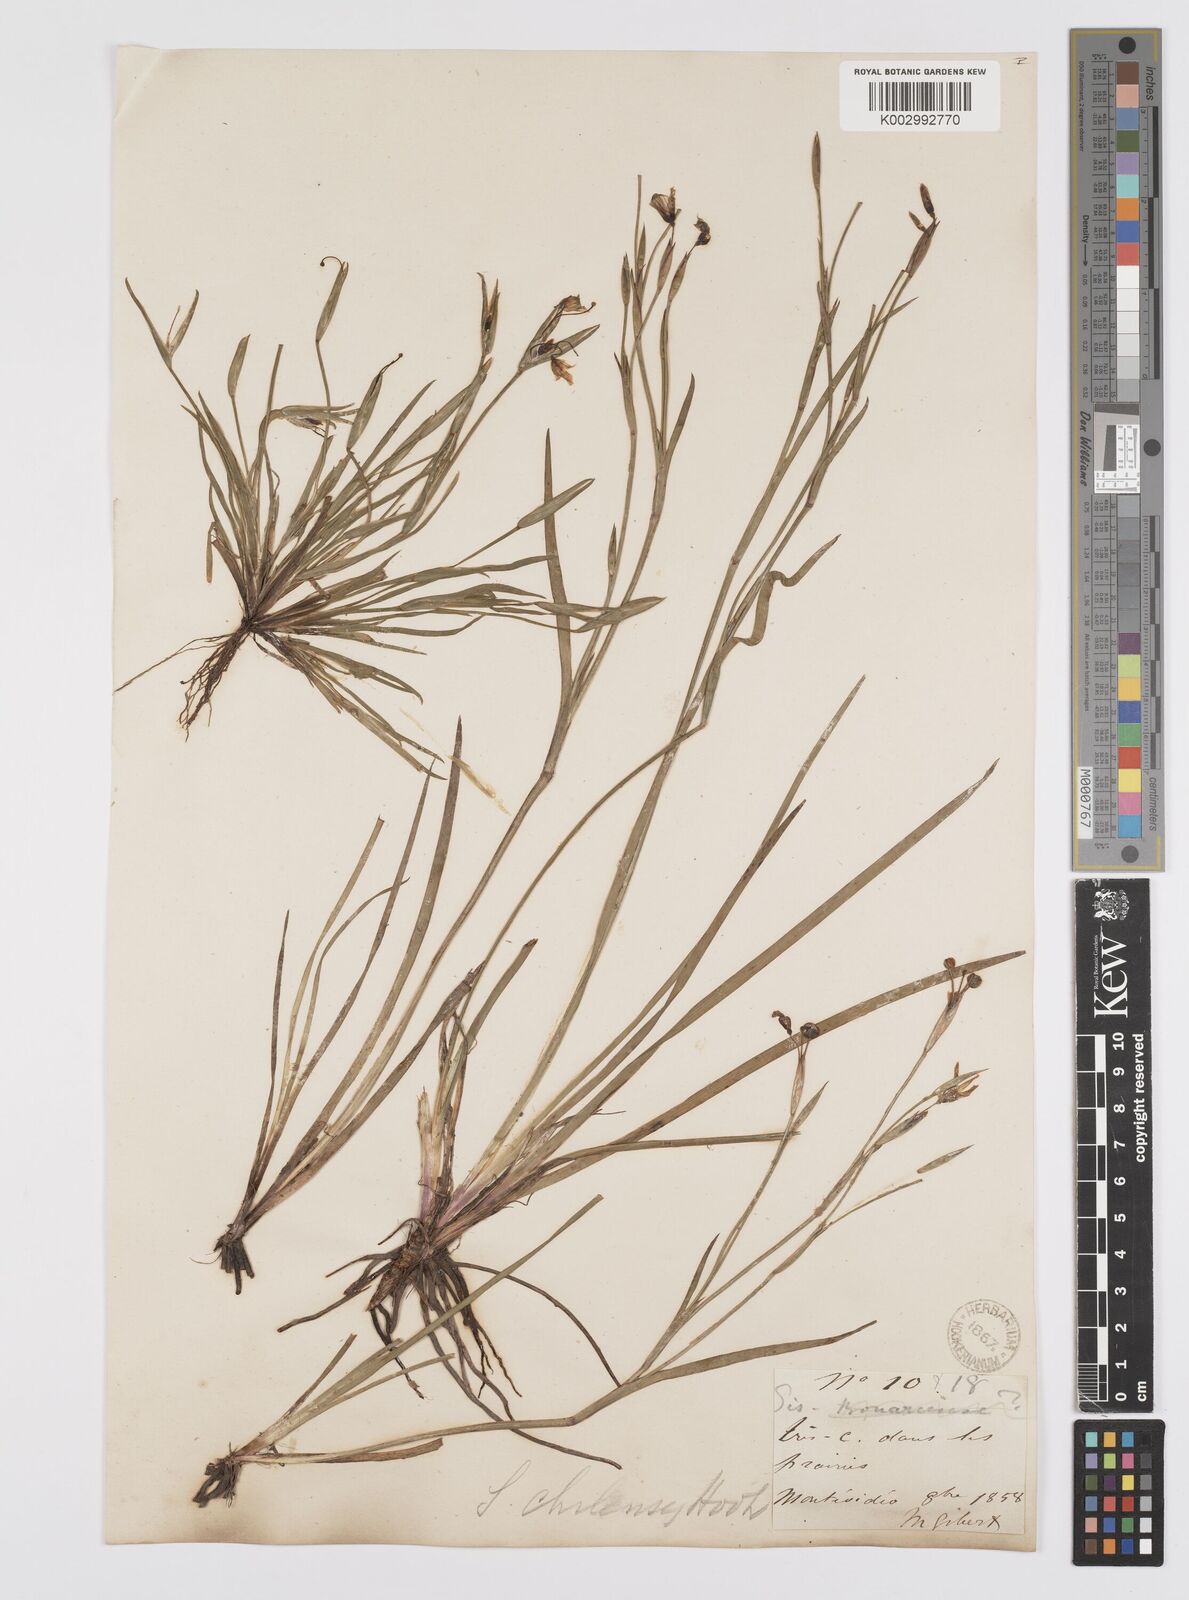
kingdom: Plantae
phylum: Tracheophyta
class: Liliopsida
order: Asparagales
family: Iridaceae
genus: Sisyrinchium
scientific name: Sisyrinchium chilense
